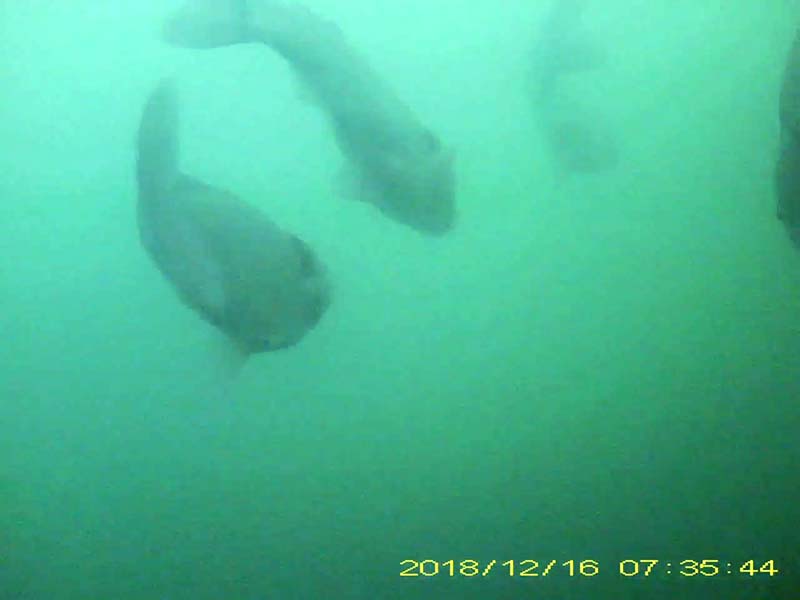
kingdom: Animalia
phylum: Chordata
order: Cypriniformes
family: Cyprinidae
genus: Carassius
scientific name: Carassius cuvieri
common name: ゲンゴロウブナ
